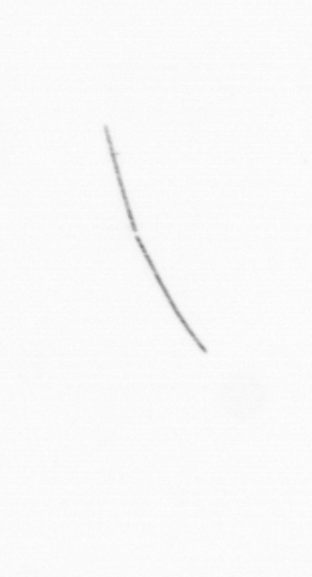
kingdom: Chromista
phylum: Ochrophyta
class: Bacillariophyceae
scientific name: Bacillariophyceae
